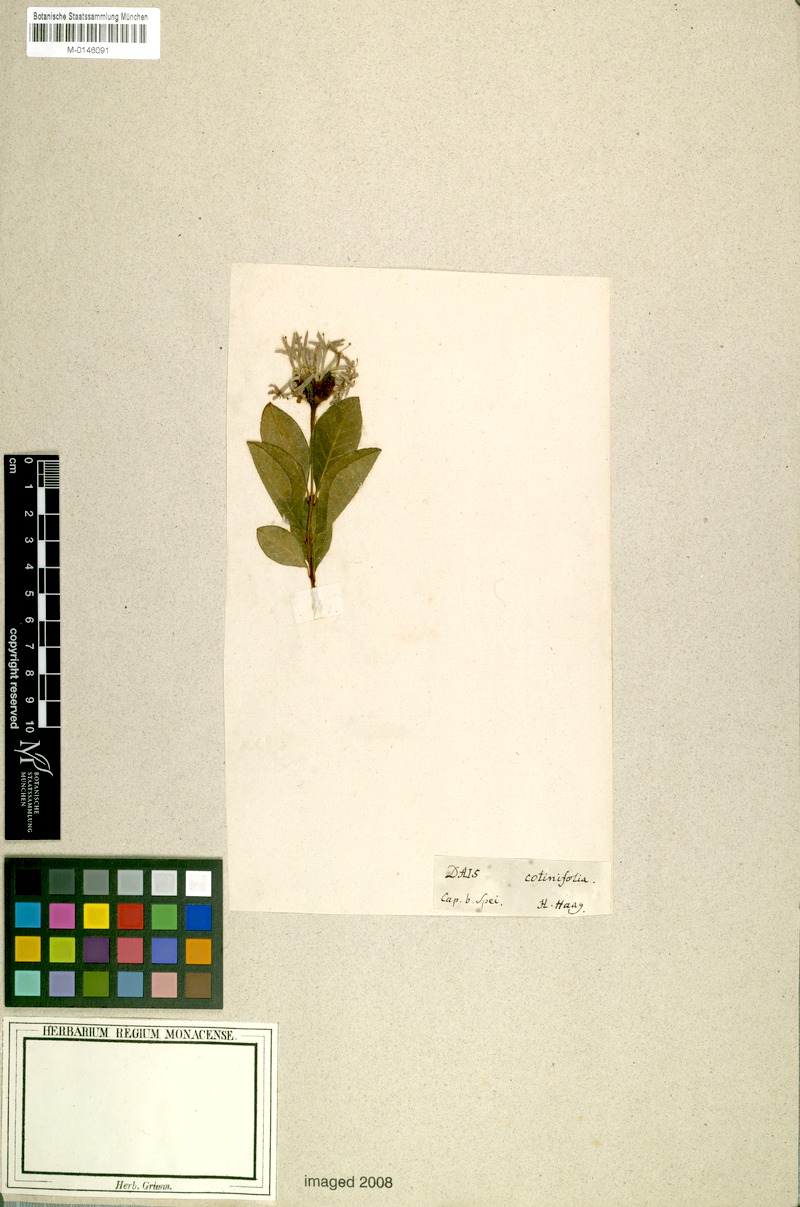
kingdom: Plantae
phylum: Tracheophyta
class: Magnoliopsida
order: Malvales
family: Thymelaeaceae
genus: Dais
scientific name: Dais cotinifolia
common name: Pompon tree
